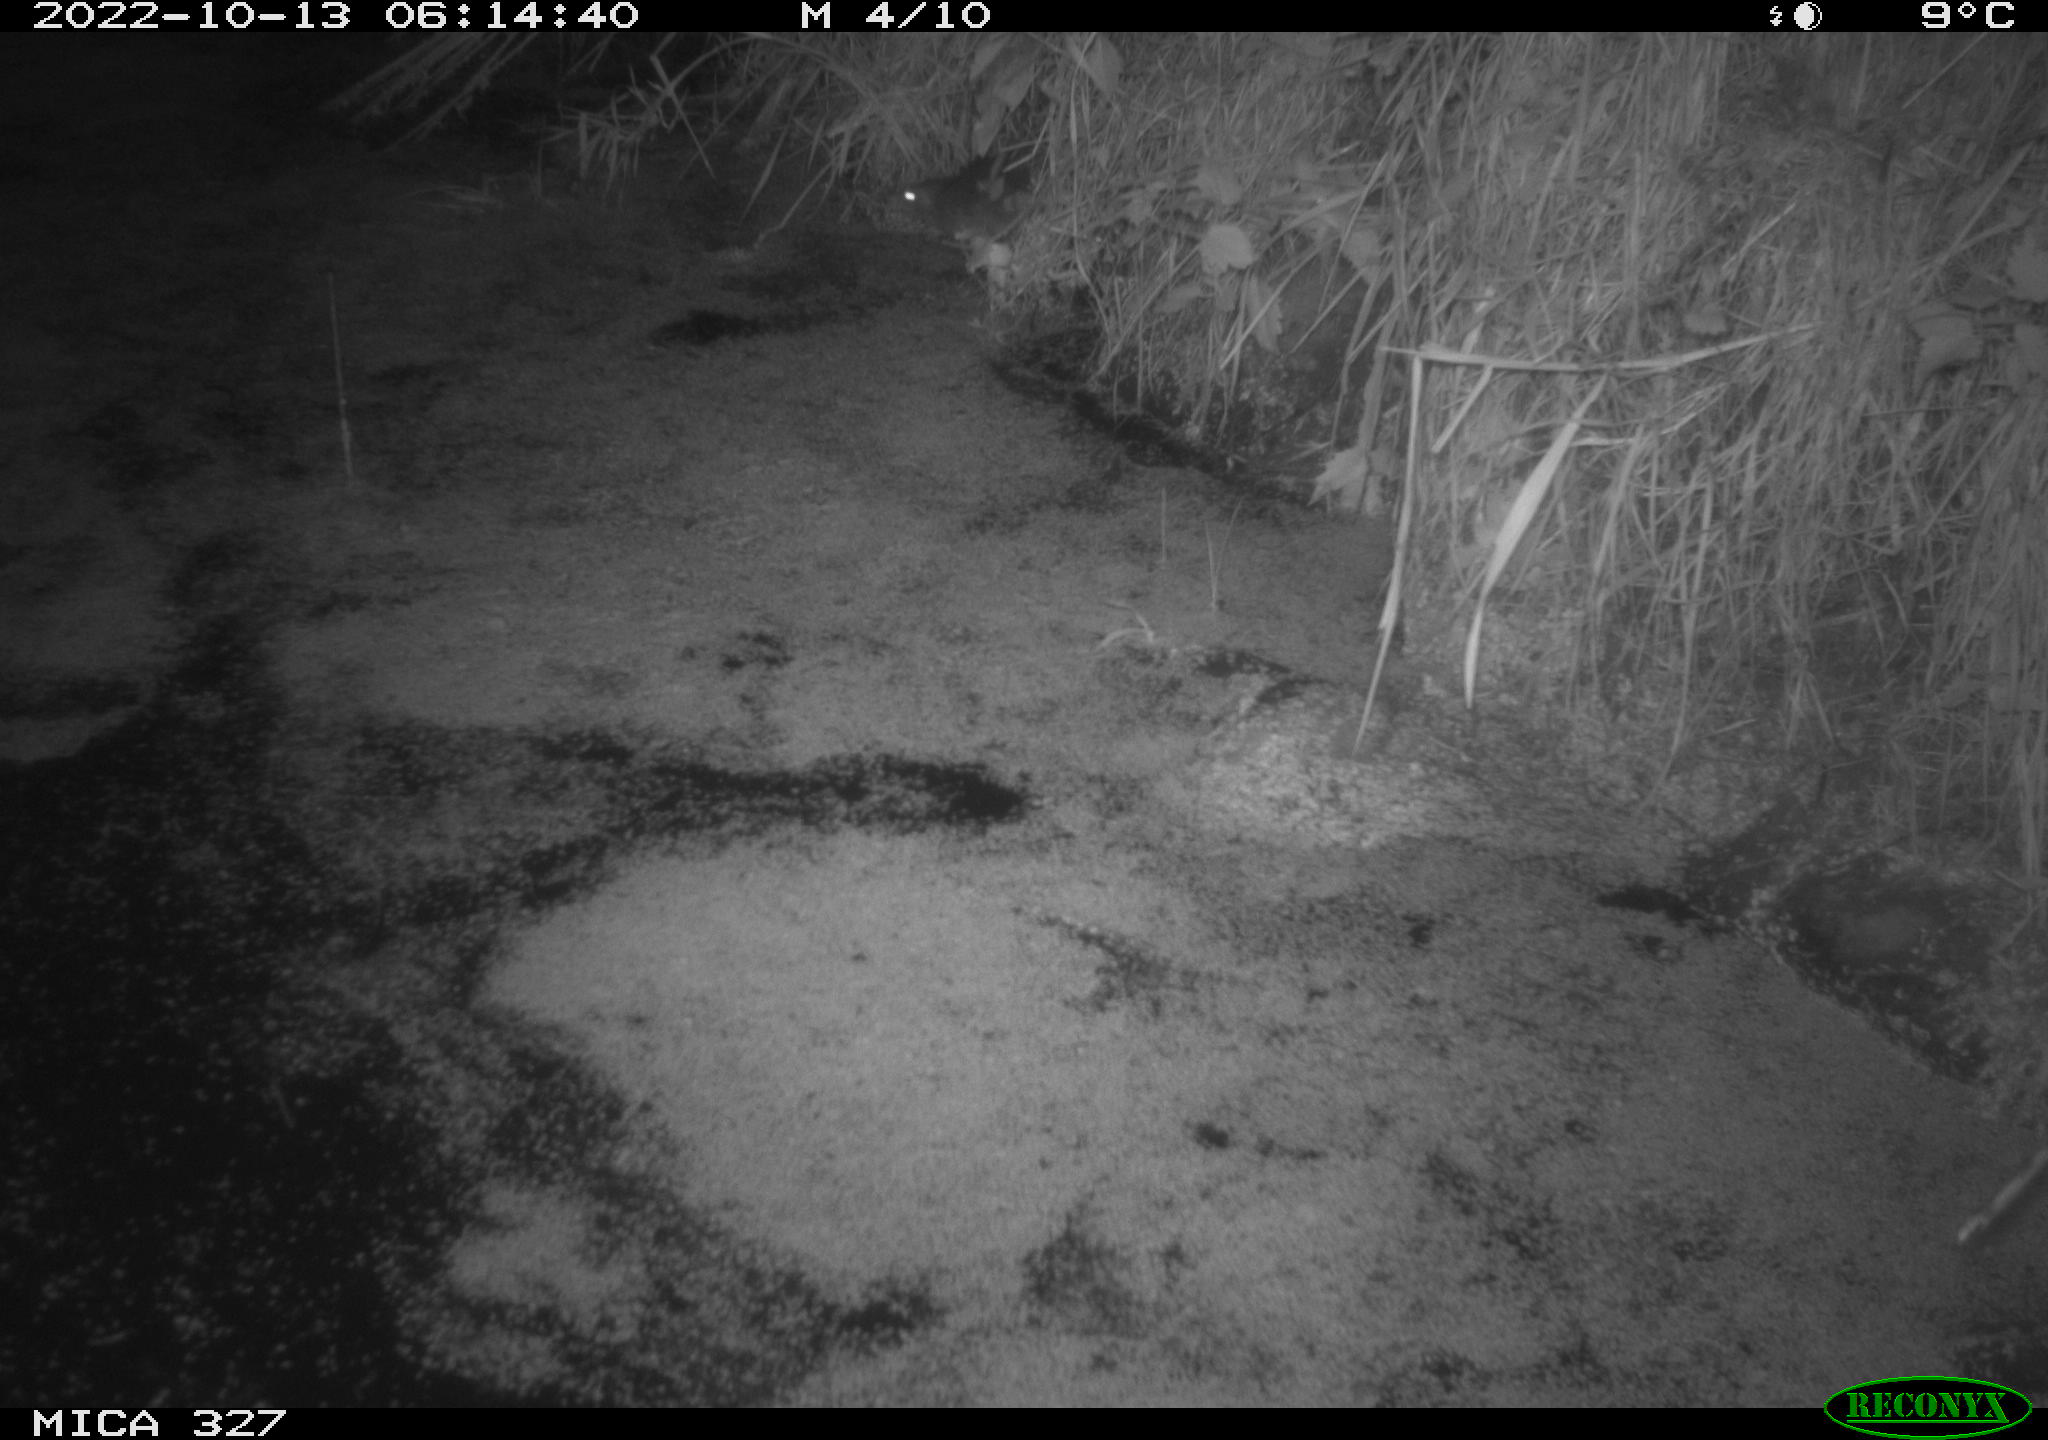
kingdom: Animalia
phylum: Chordata
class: Mammalia
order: Rodentia
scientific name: Rodentia
